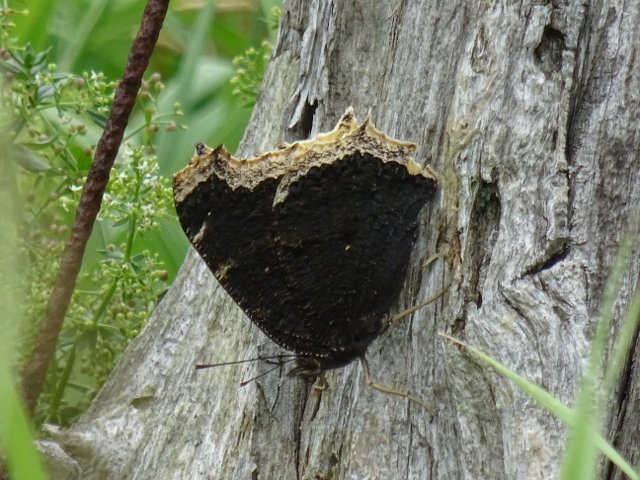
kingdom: Animalia
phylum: Arthropoda
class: Insecta
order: Lepidoptera
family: Nymphalidae
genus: Nymphalis
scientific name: Nymphalis antiopa
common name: Mourning Cloak
